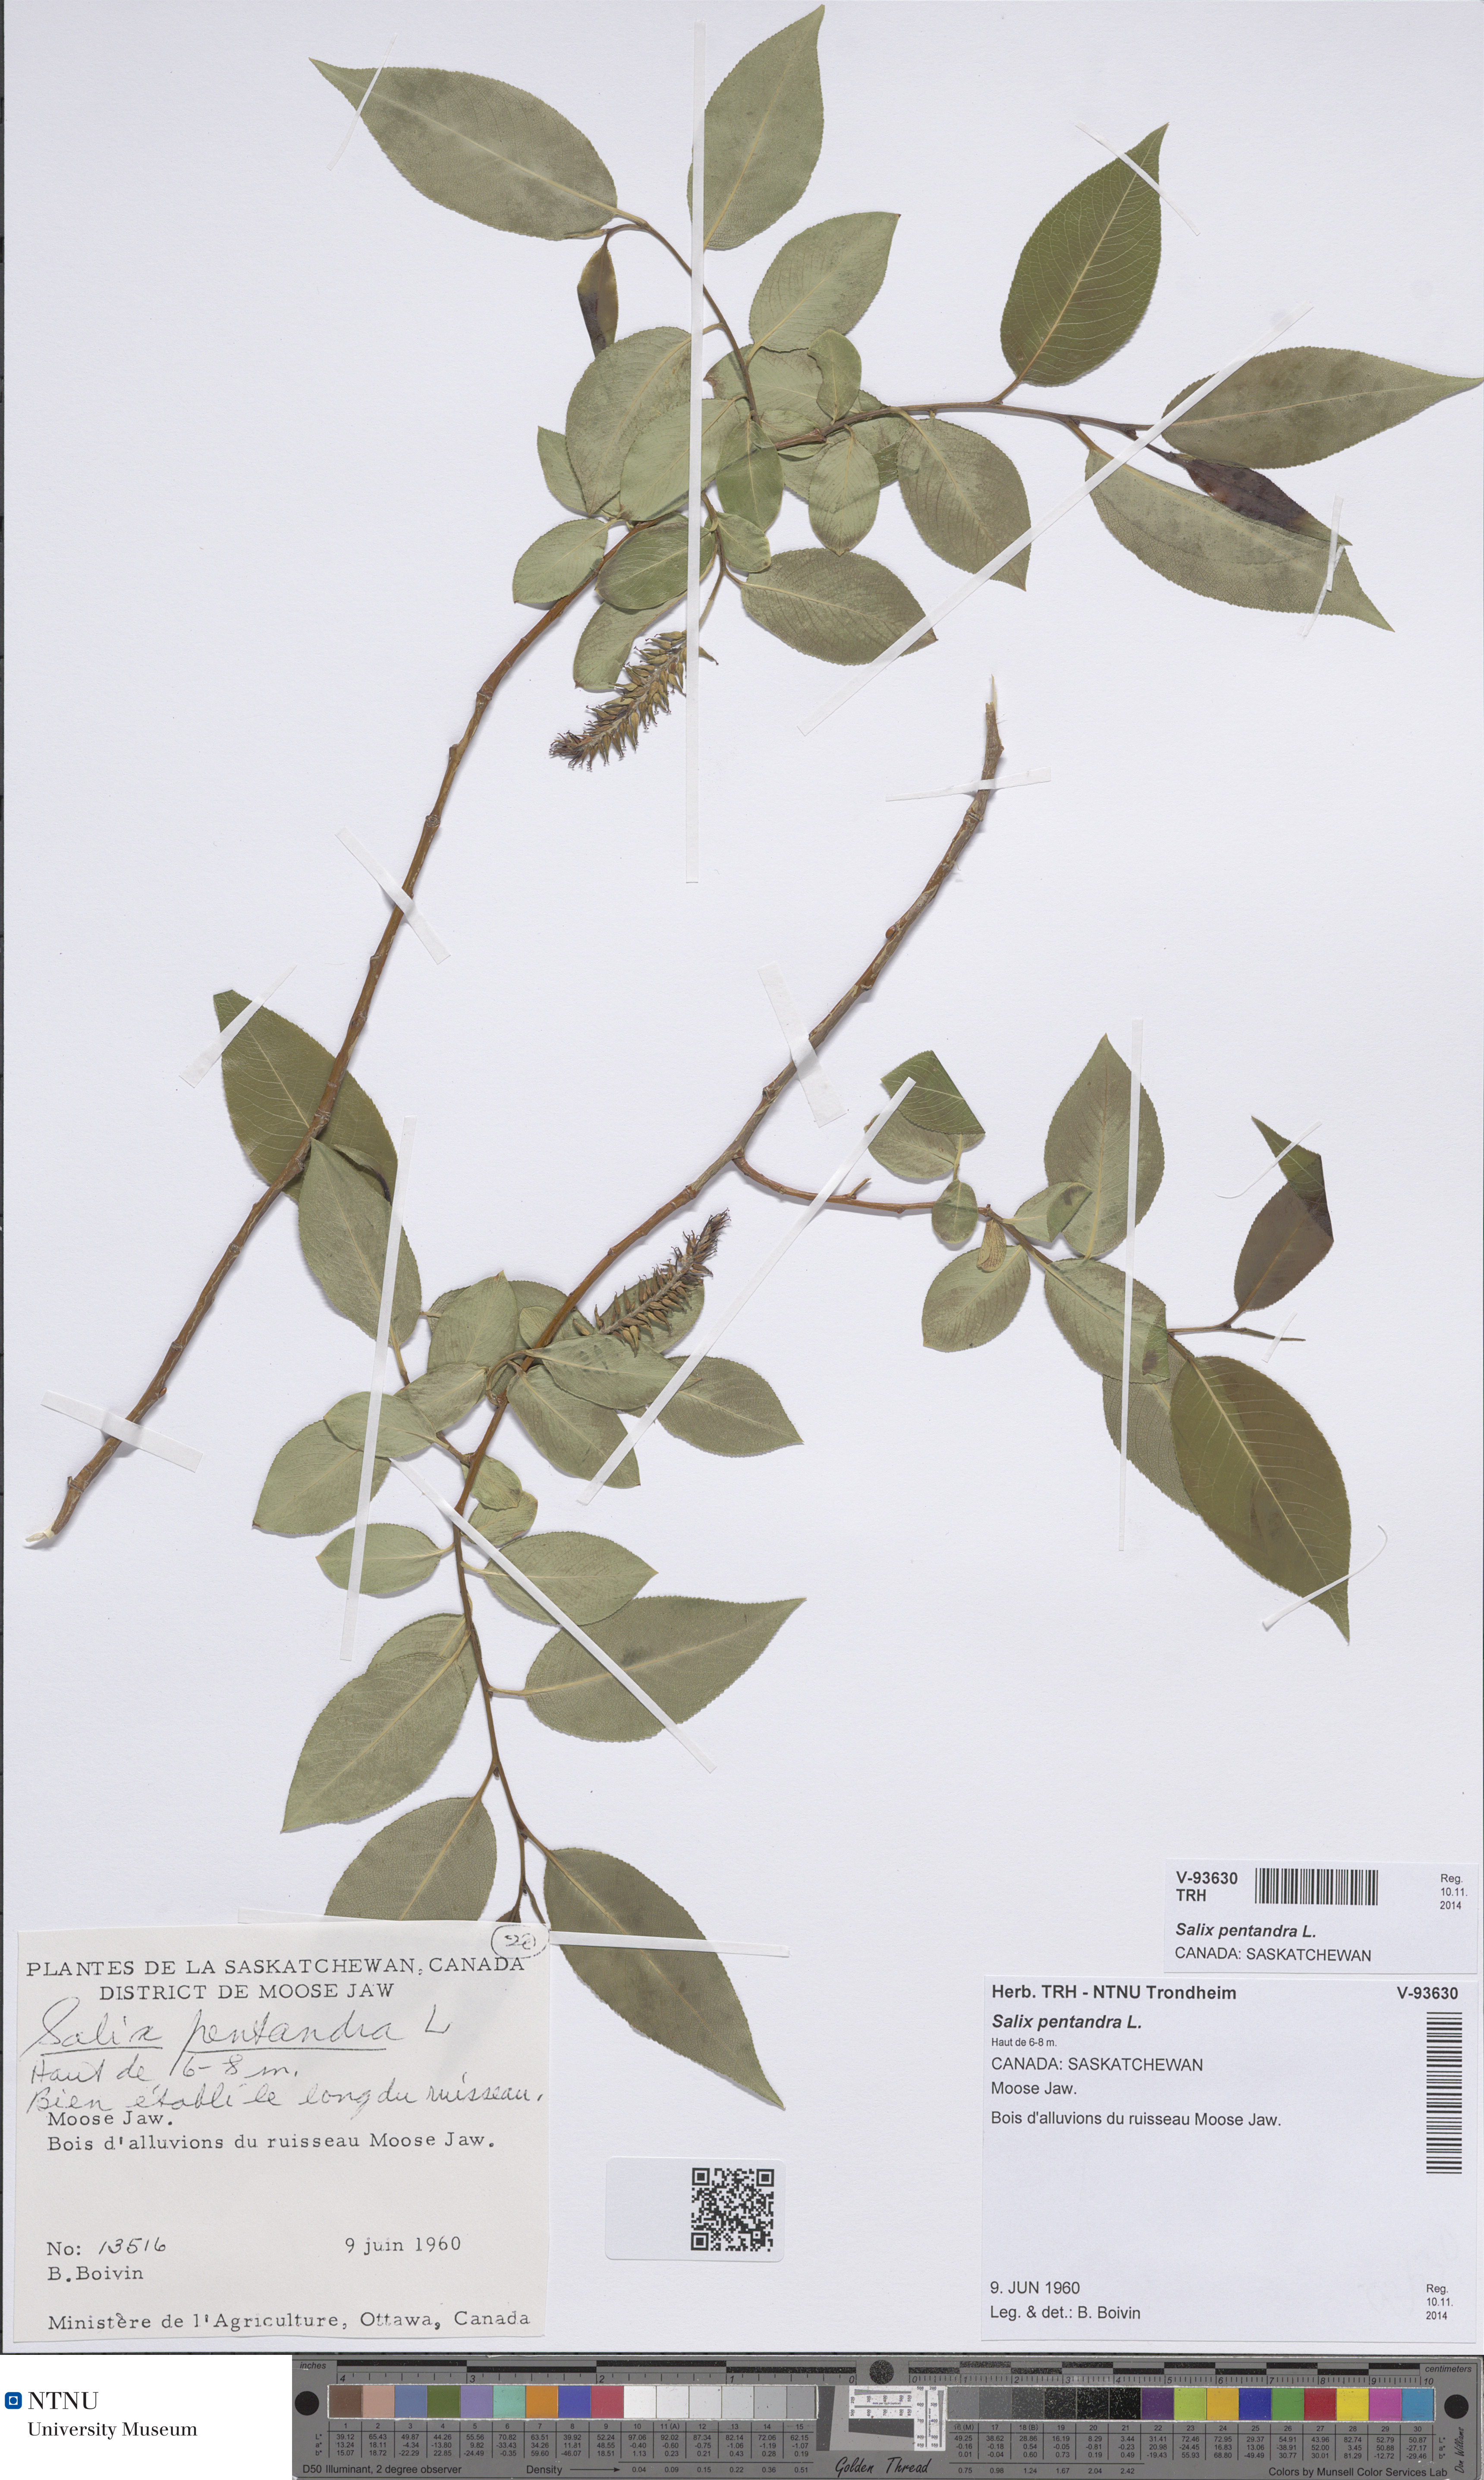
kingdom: Plantae
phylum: Tracheophyta
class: Magnoliopsida
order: Malpighiales
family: Salicaceae
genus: Salix
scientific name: Salix pentandra
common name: Bay willow
